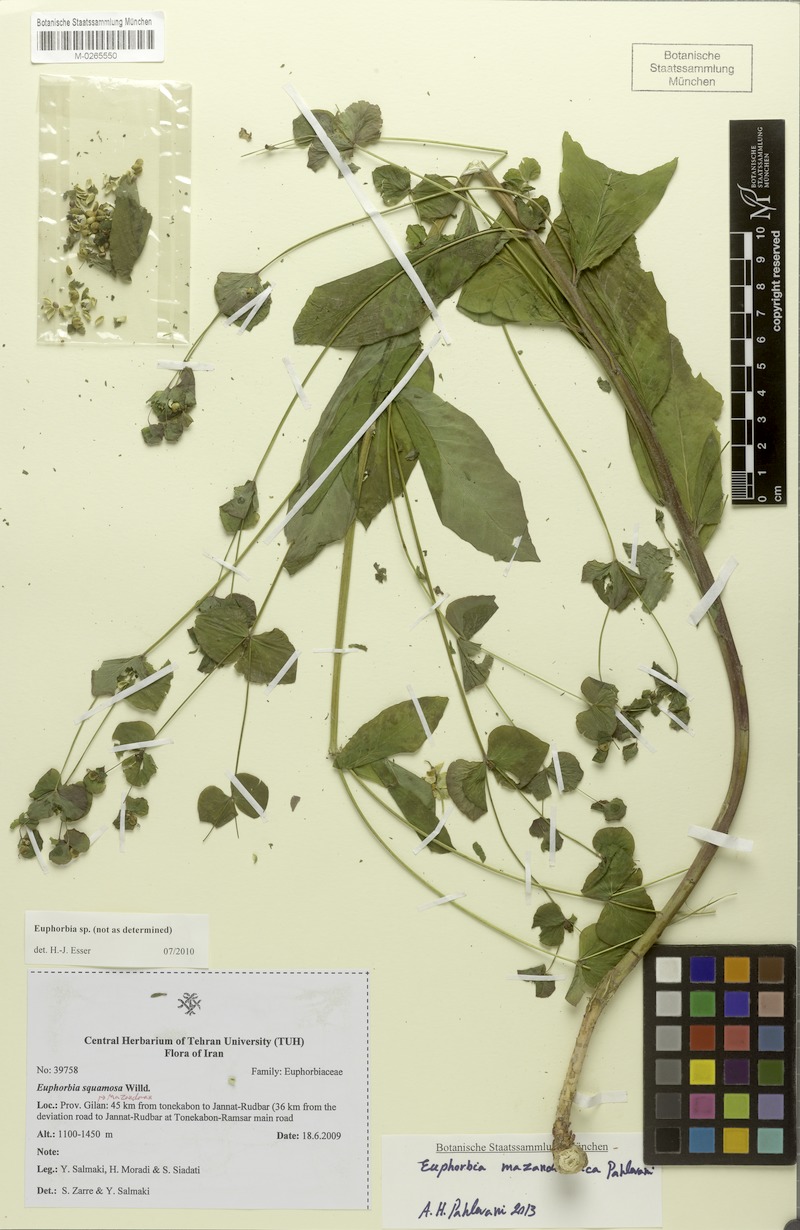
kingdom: Plantae
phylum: Tracheophyta
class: Magnoliopsida
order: Malpighiales
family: Euphorbiaceae
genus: Euphorbia
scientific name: Euphorbia mazandaranica
